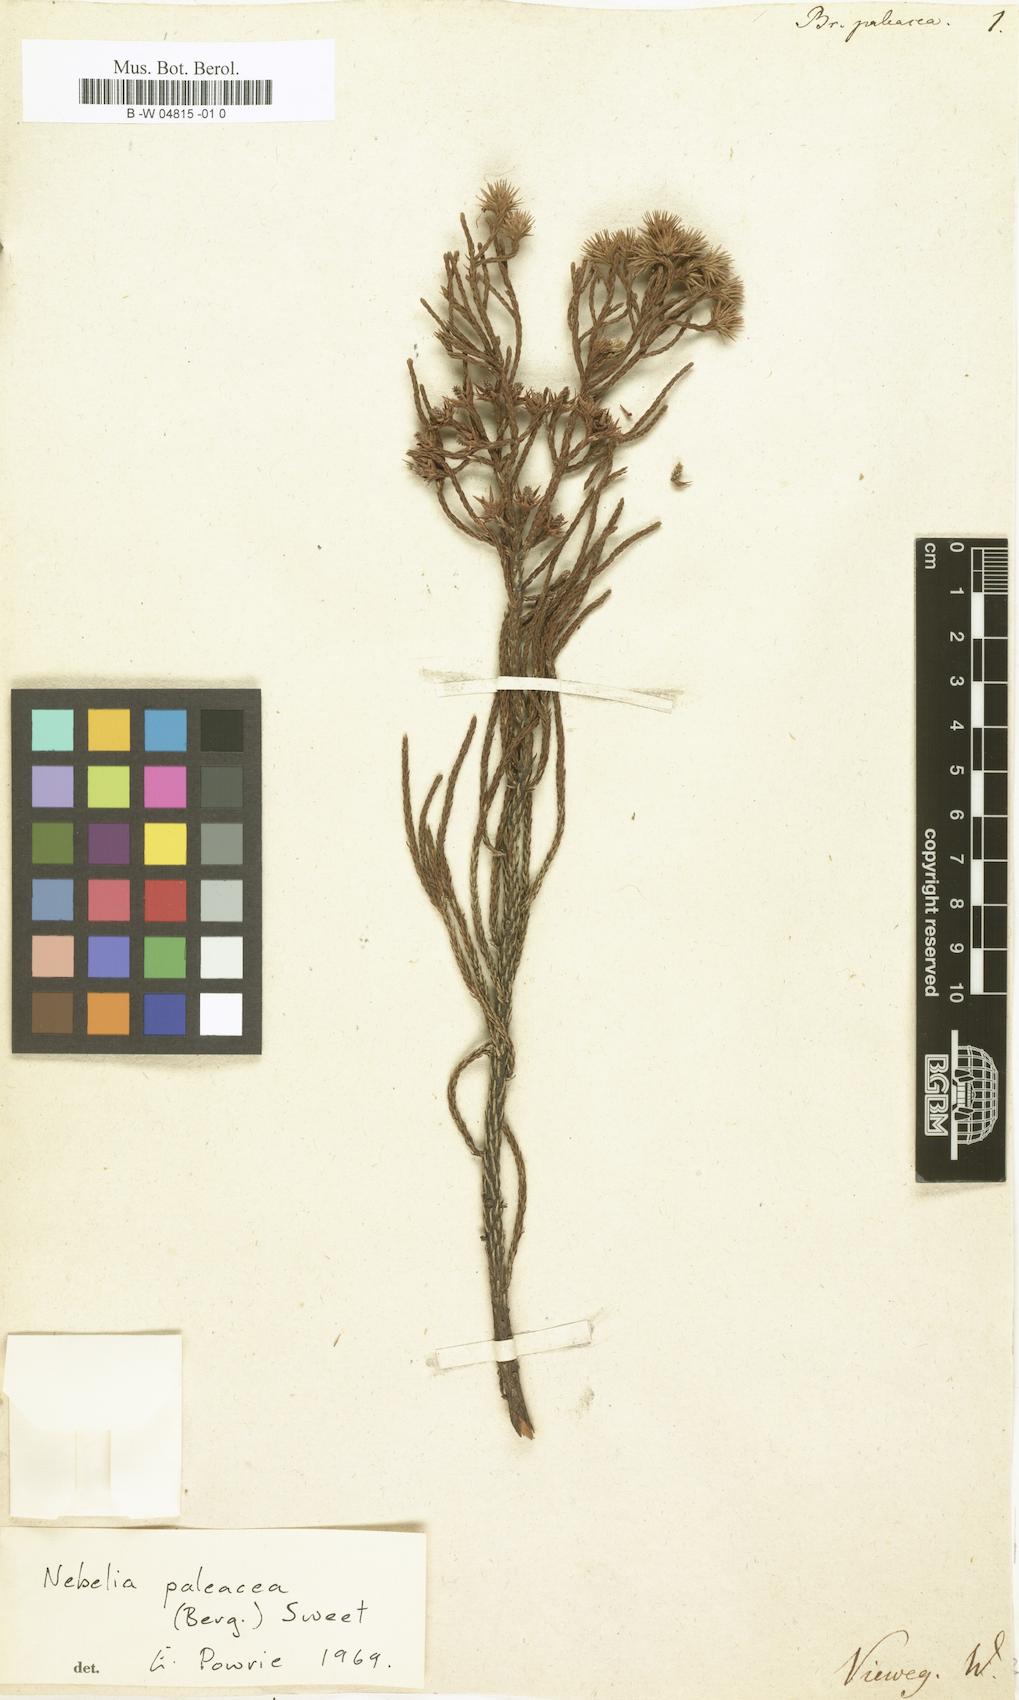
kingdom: Plantae
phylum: Tracheophyta
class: Magnoliopsida
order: Bruniales
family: Bruniaceae
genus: Brunia
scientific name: Brunia paleacea
